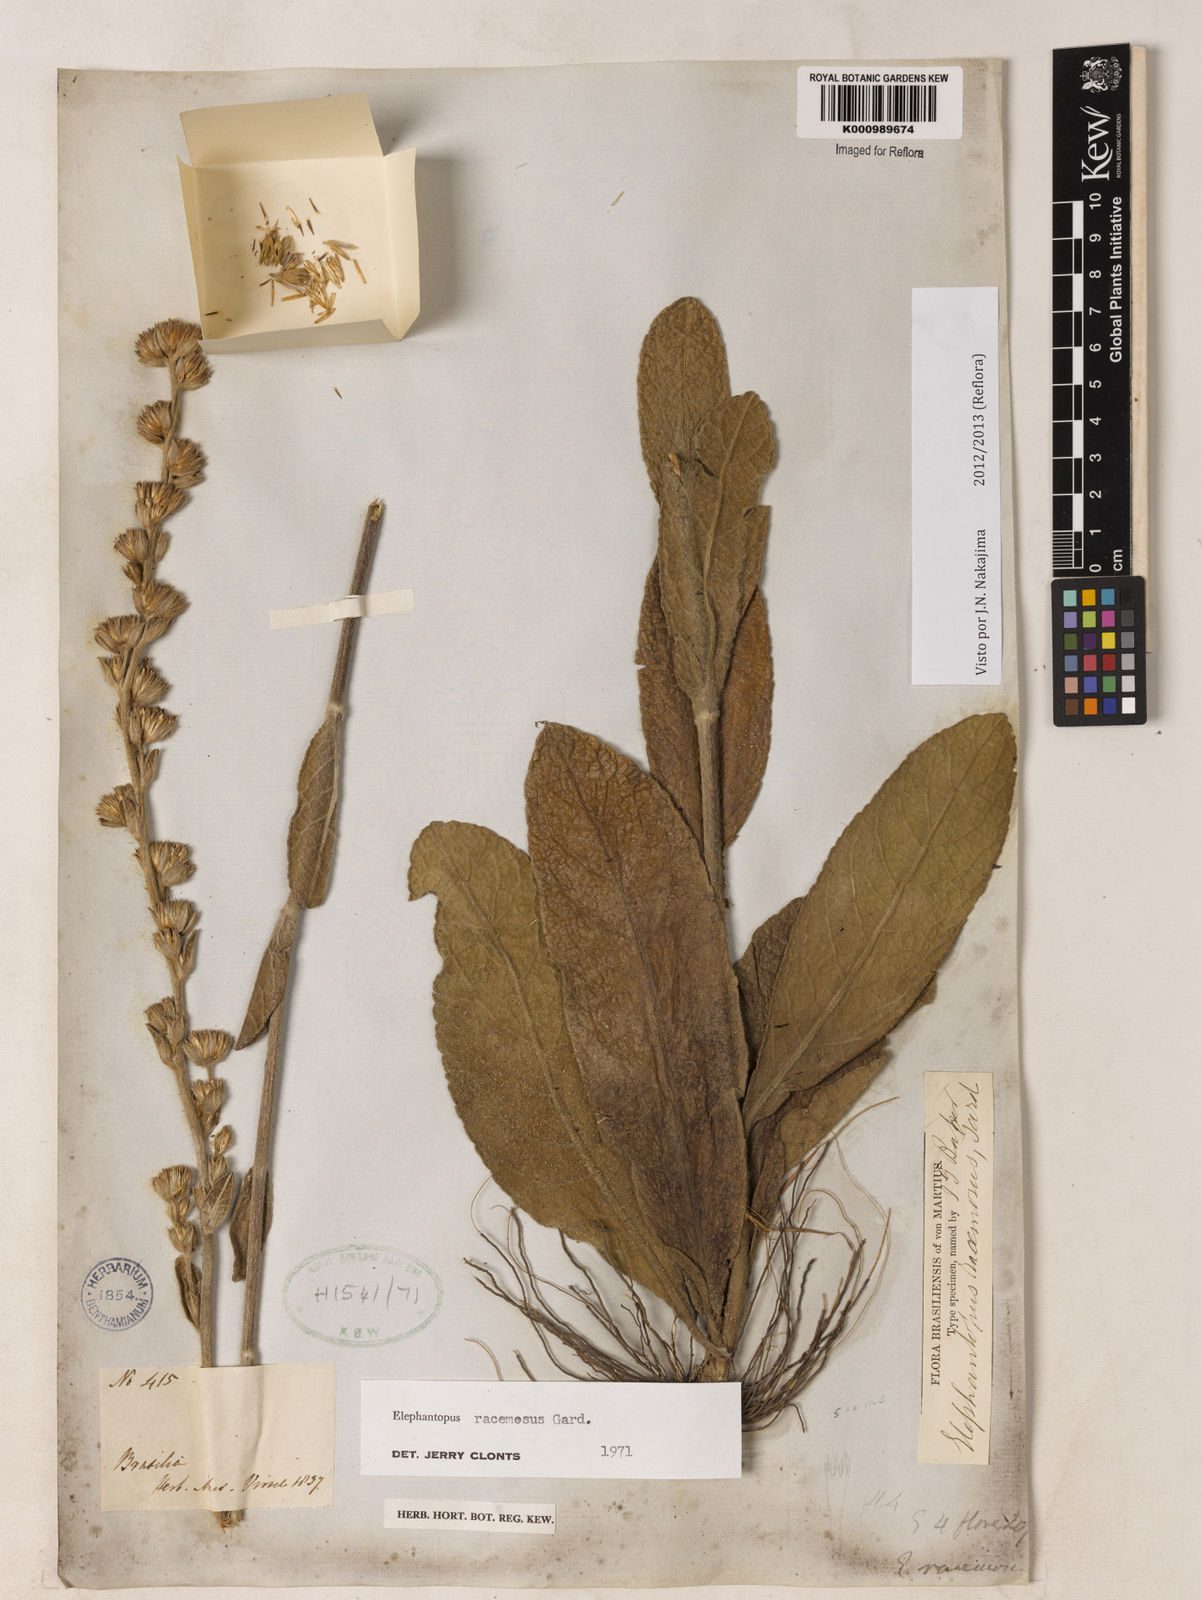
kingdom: Plantae
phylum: Tracheophyta
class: Magnoliopsida
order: Asterales
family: Asteraceae
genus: Elephantopus
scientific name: Elephantopus racemosus
